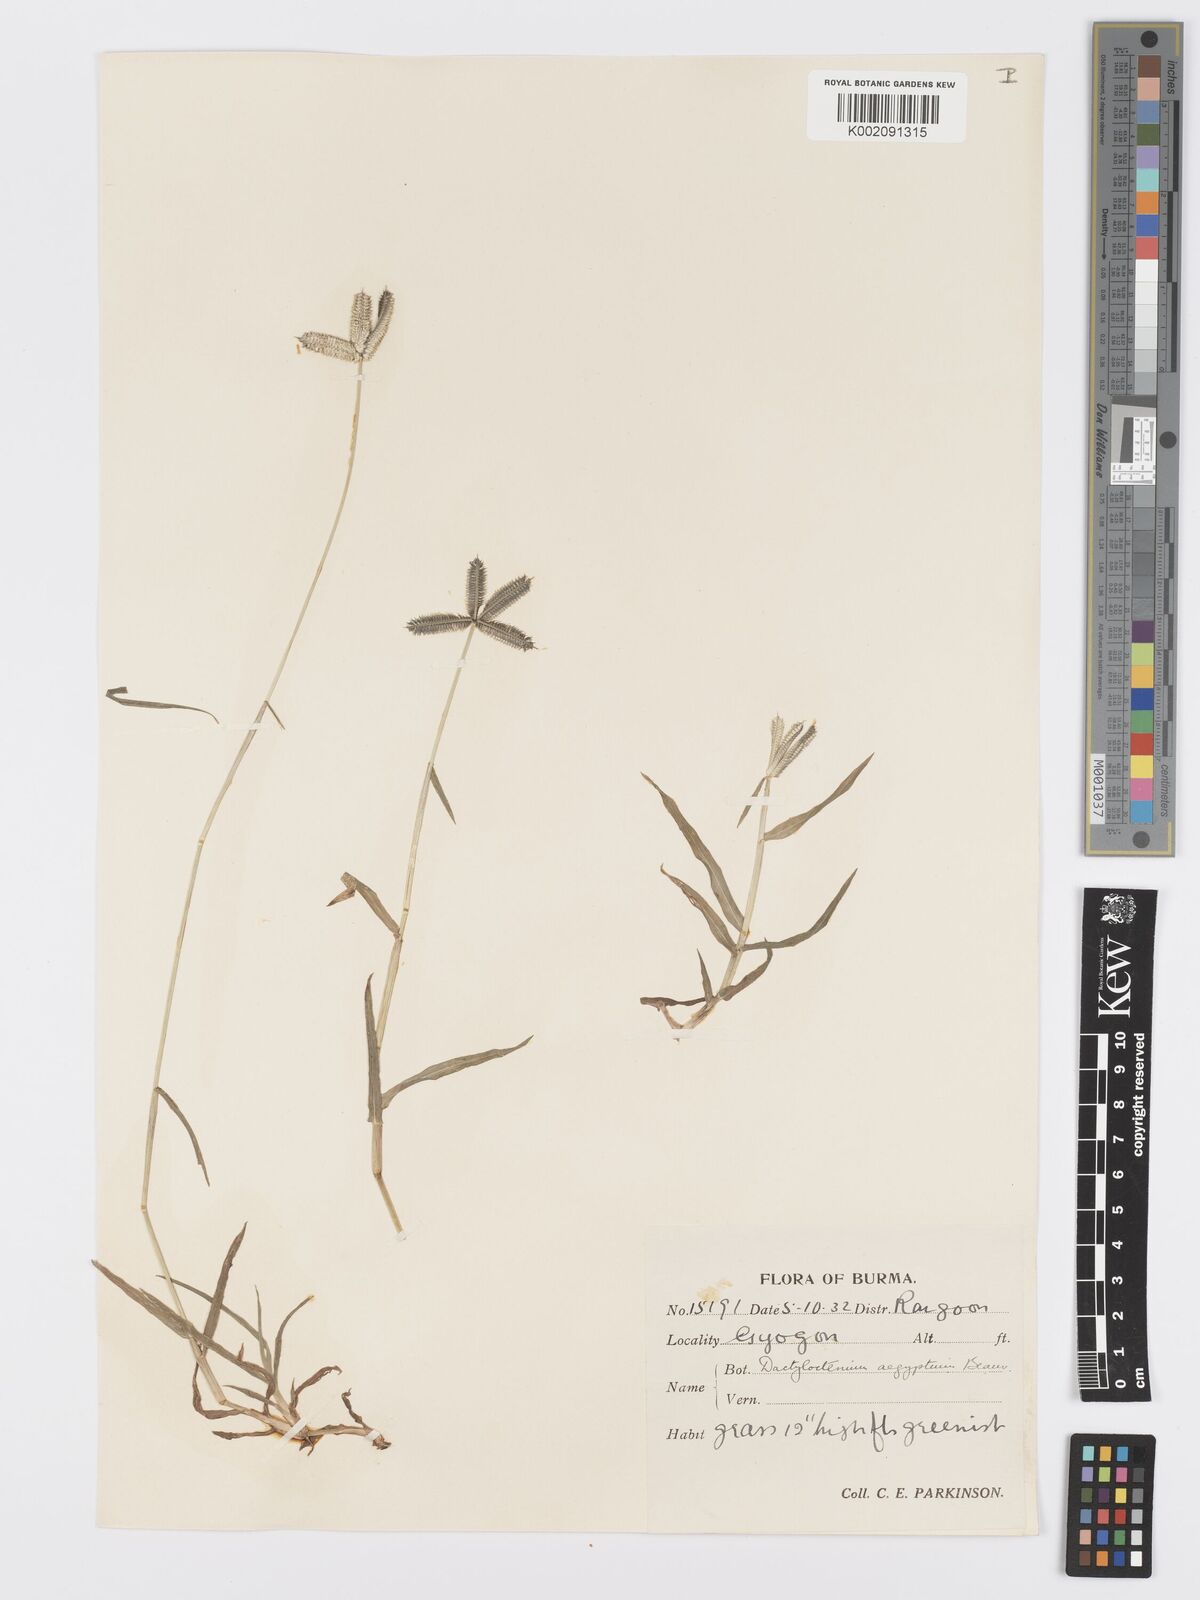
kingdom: Plantae
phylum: Tracheophyta
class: Liliopsida
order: Poales
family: Poaceae
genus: Dactyloctenium
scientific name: Dactyloctenium aegyptium
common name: Egyptian grass
